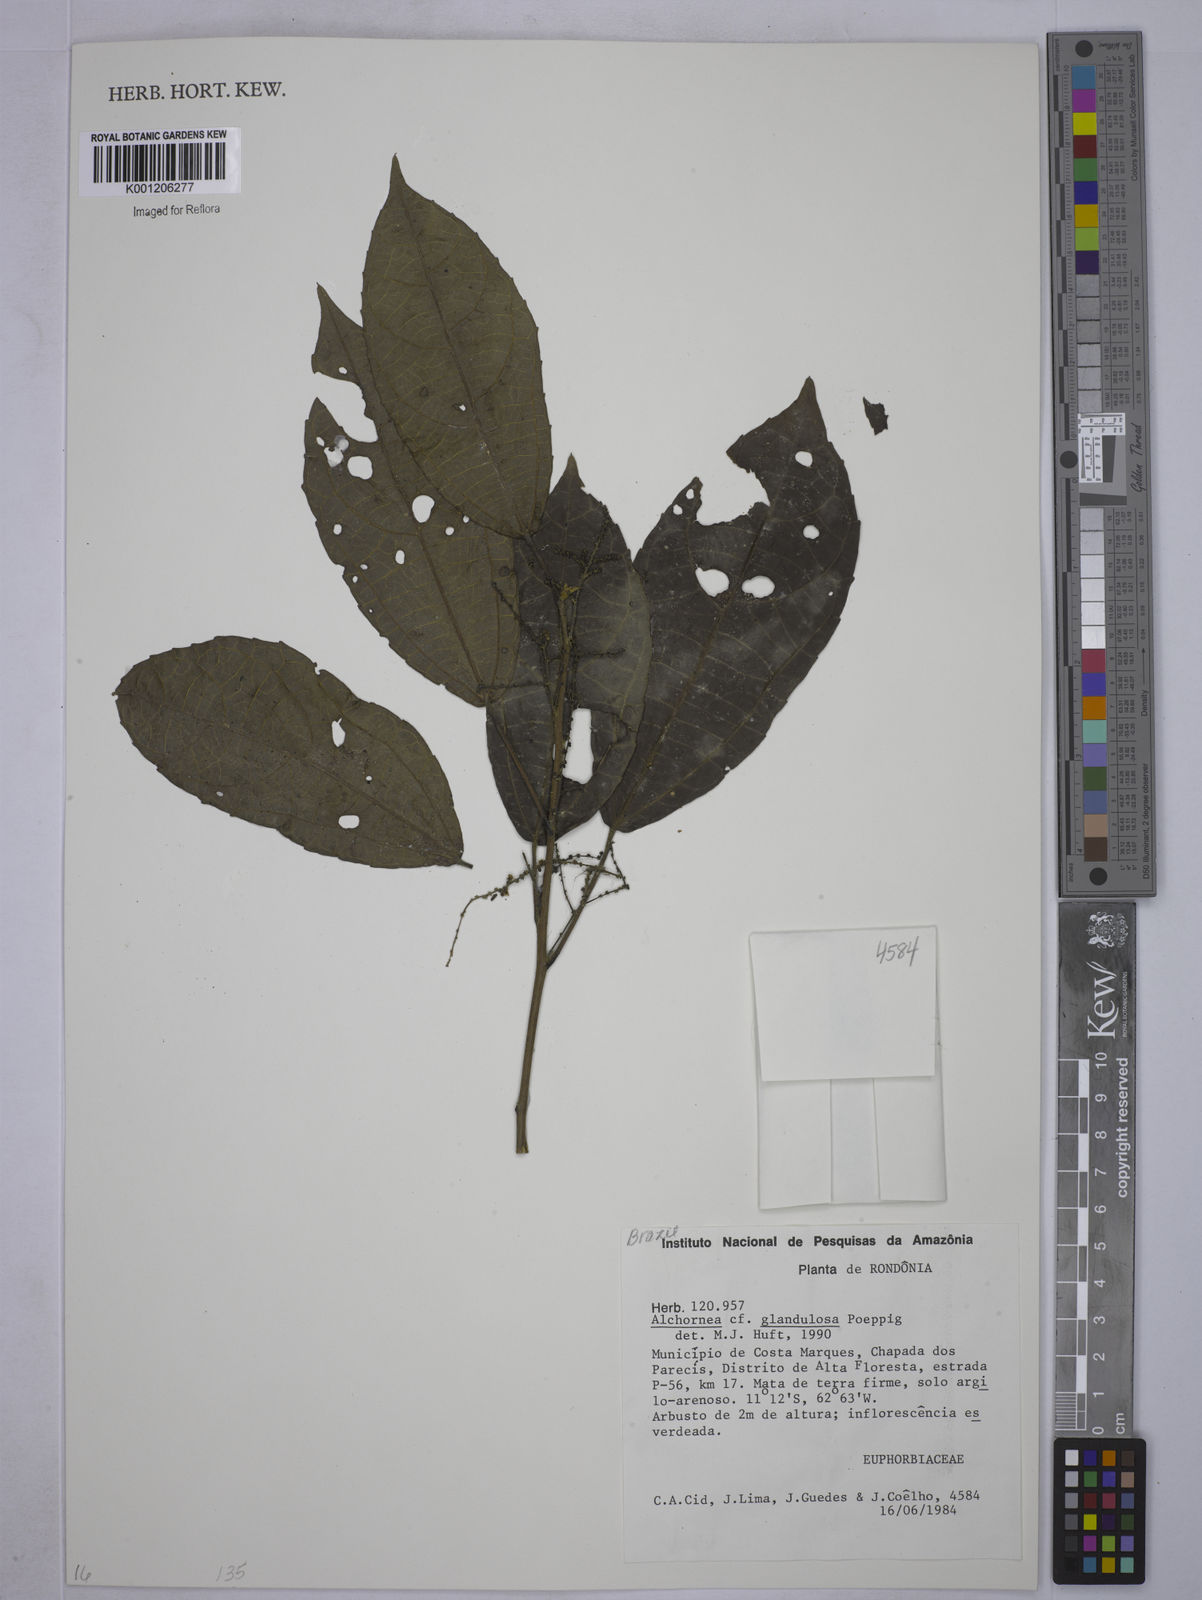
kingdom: Plantae
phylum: Tracheophyta
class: Magnoliopsida
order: Malpighiales
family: Euphorbiaceae
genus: Alchornea
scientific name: Alchornea glandulosa
